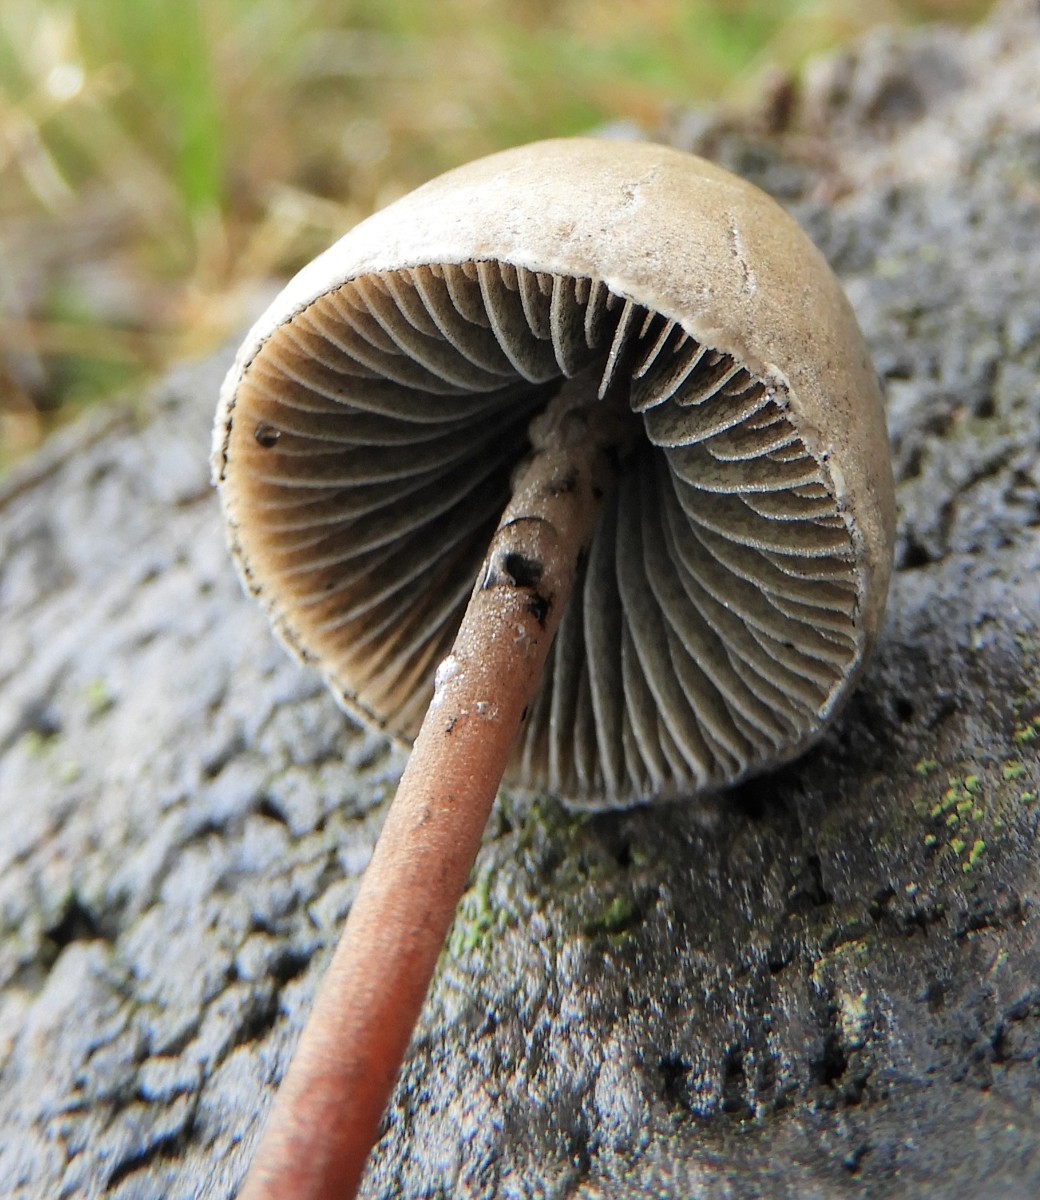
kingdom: Fungi
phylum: Basidiomycota
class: Agaricomycetes
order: Agaricales
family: Bolbitiaceae
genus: Panaeolus
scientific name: Panaeolus papilionaceus
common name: Almindelig glanshat
